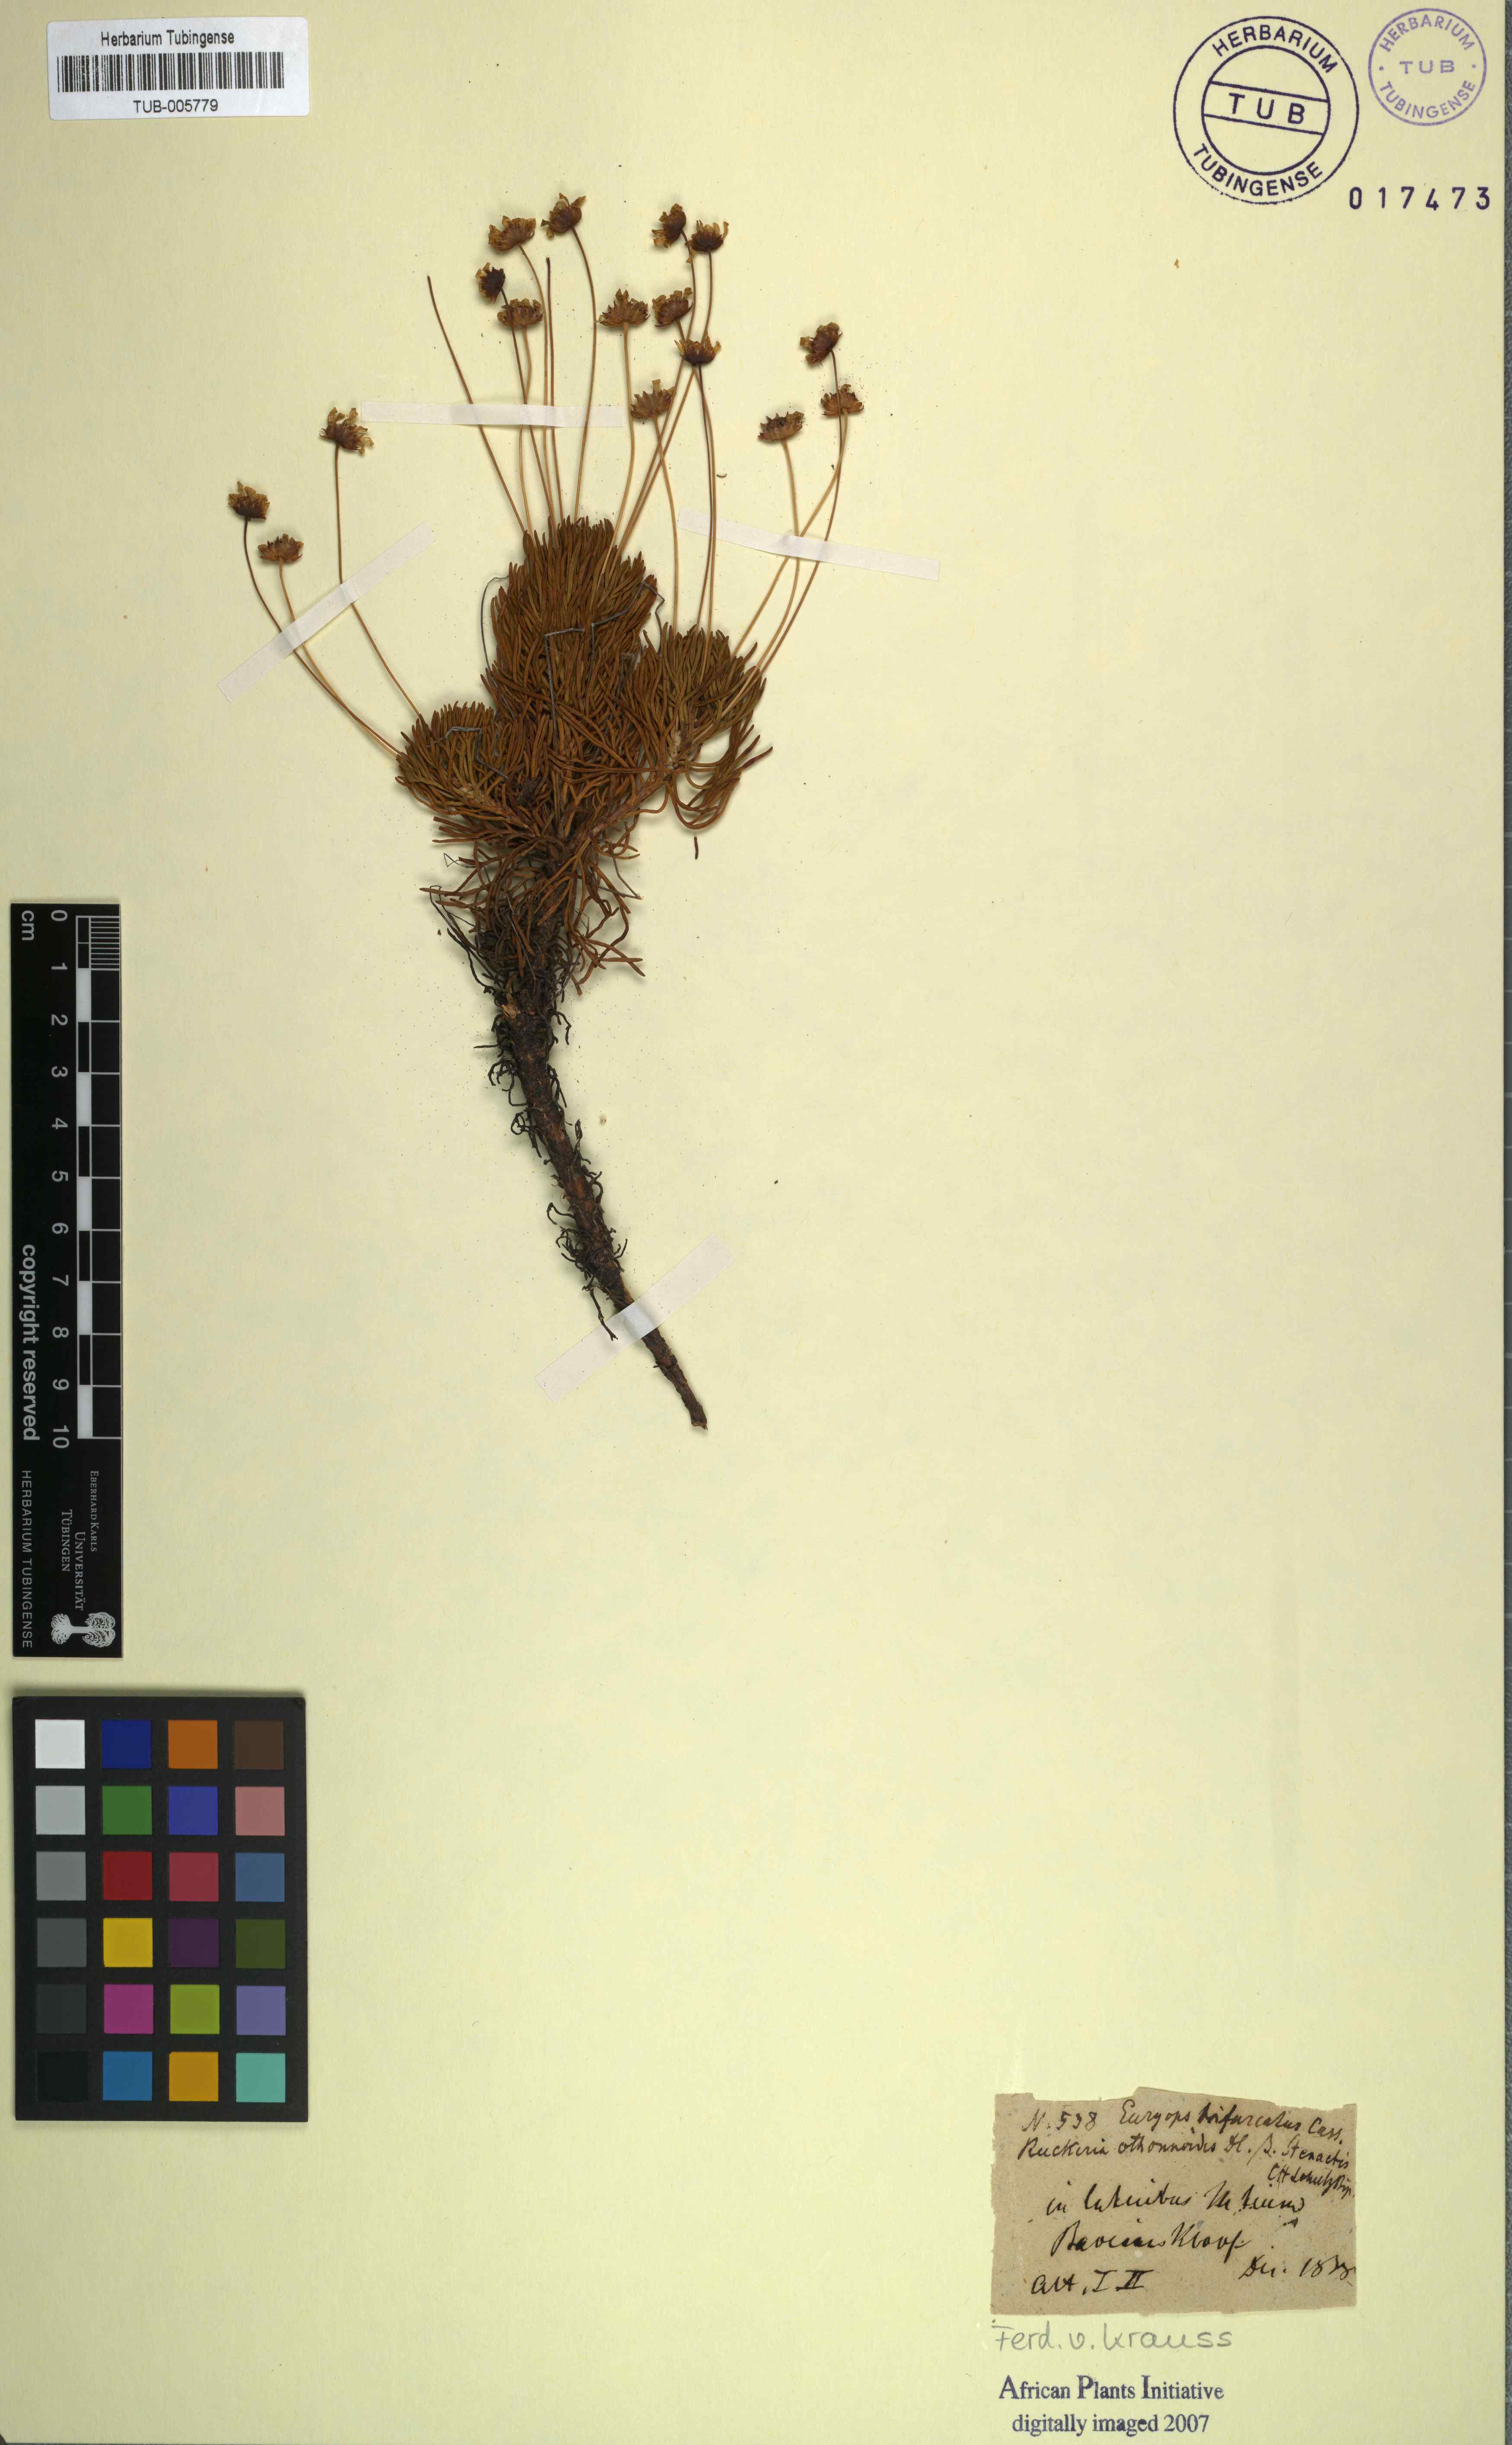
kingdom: Plantae
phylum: Tracheophyta
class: Magnoliopsida
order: Asterales
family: Asteraceae
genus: Euryops
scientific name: Euryops othonnoides
